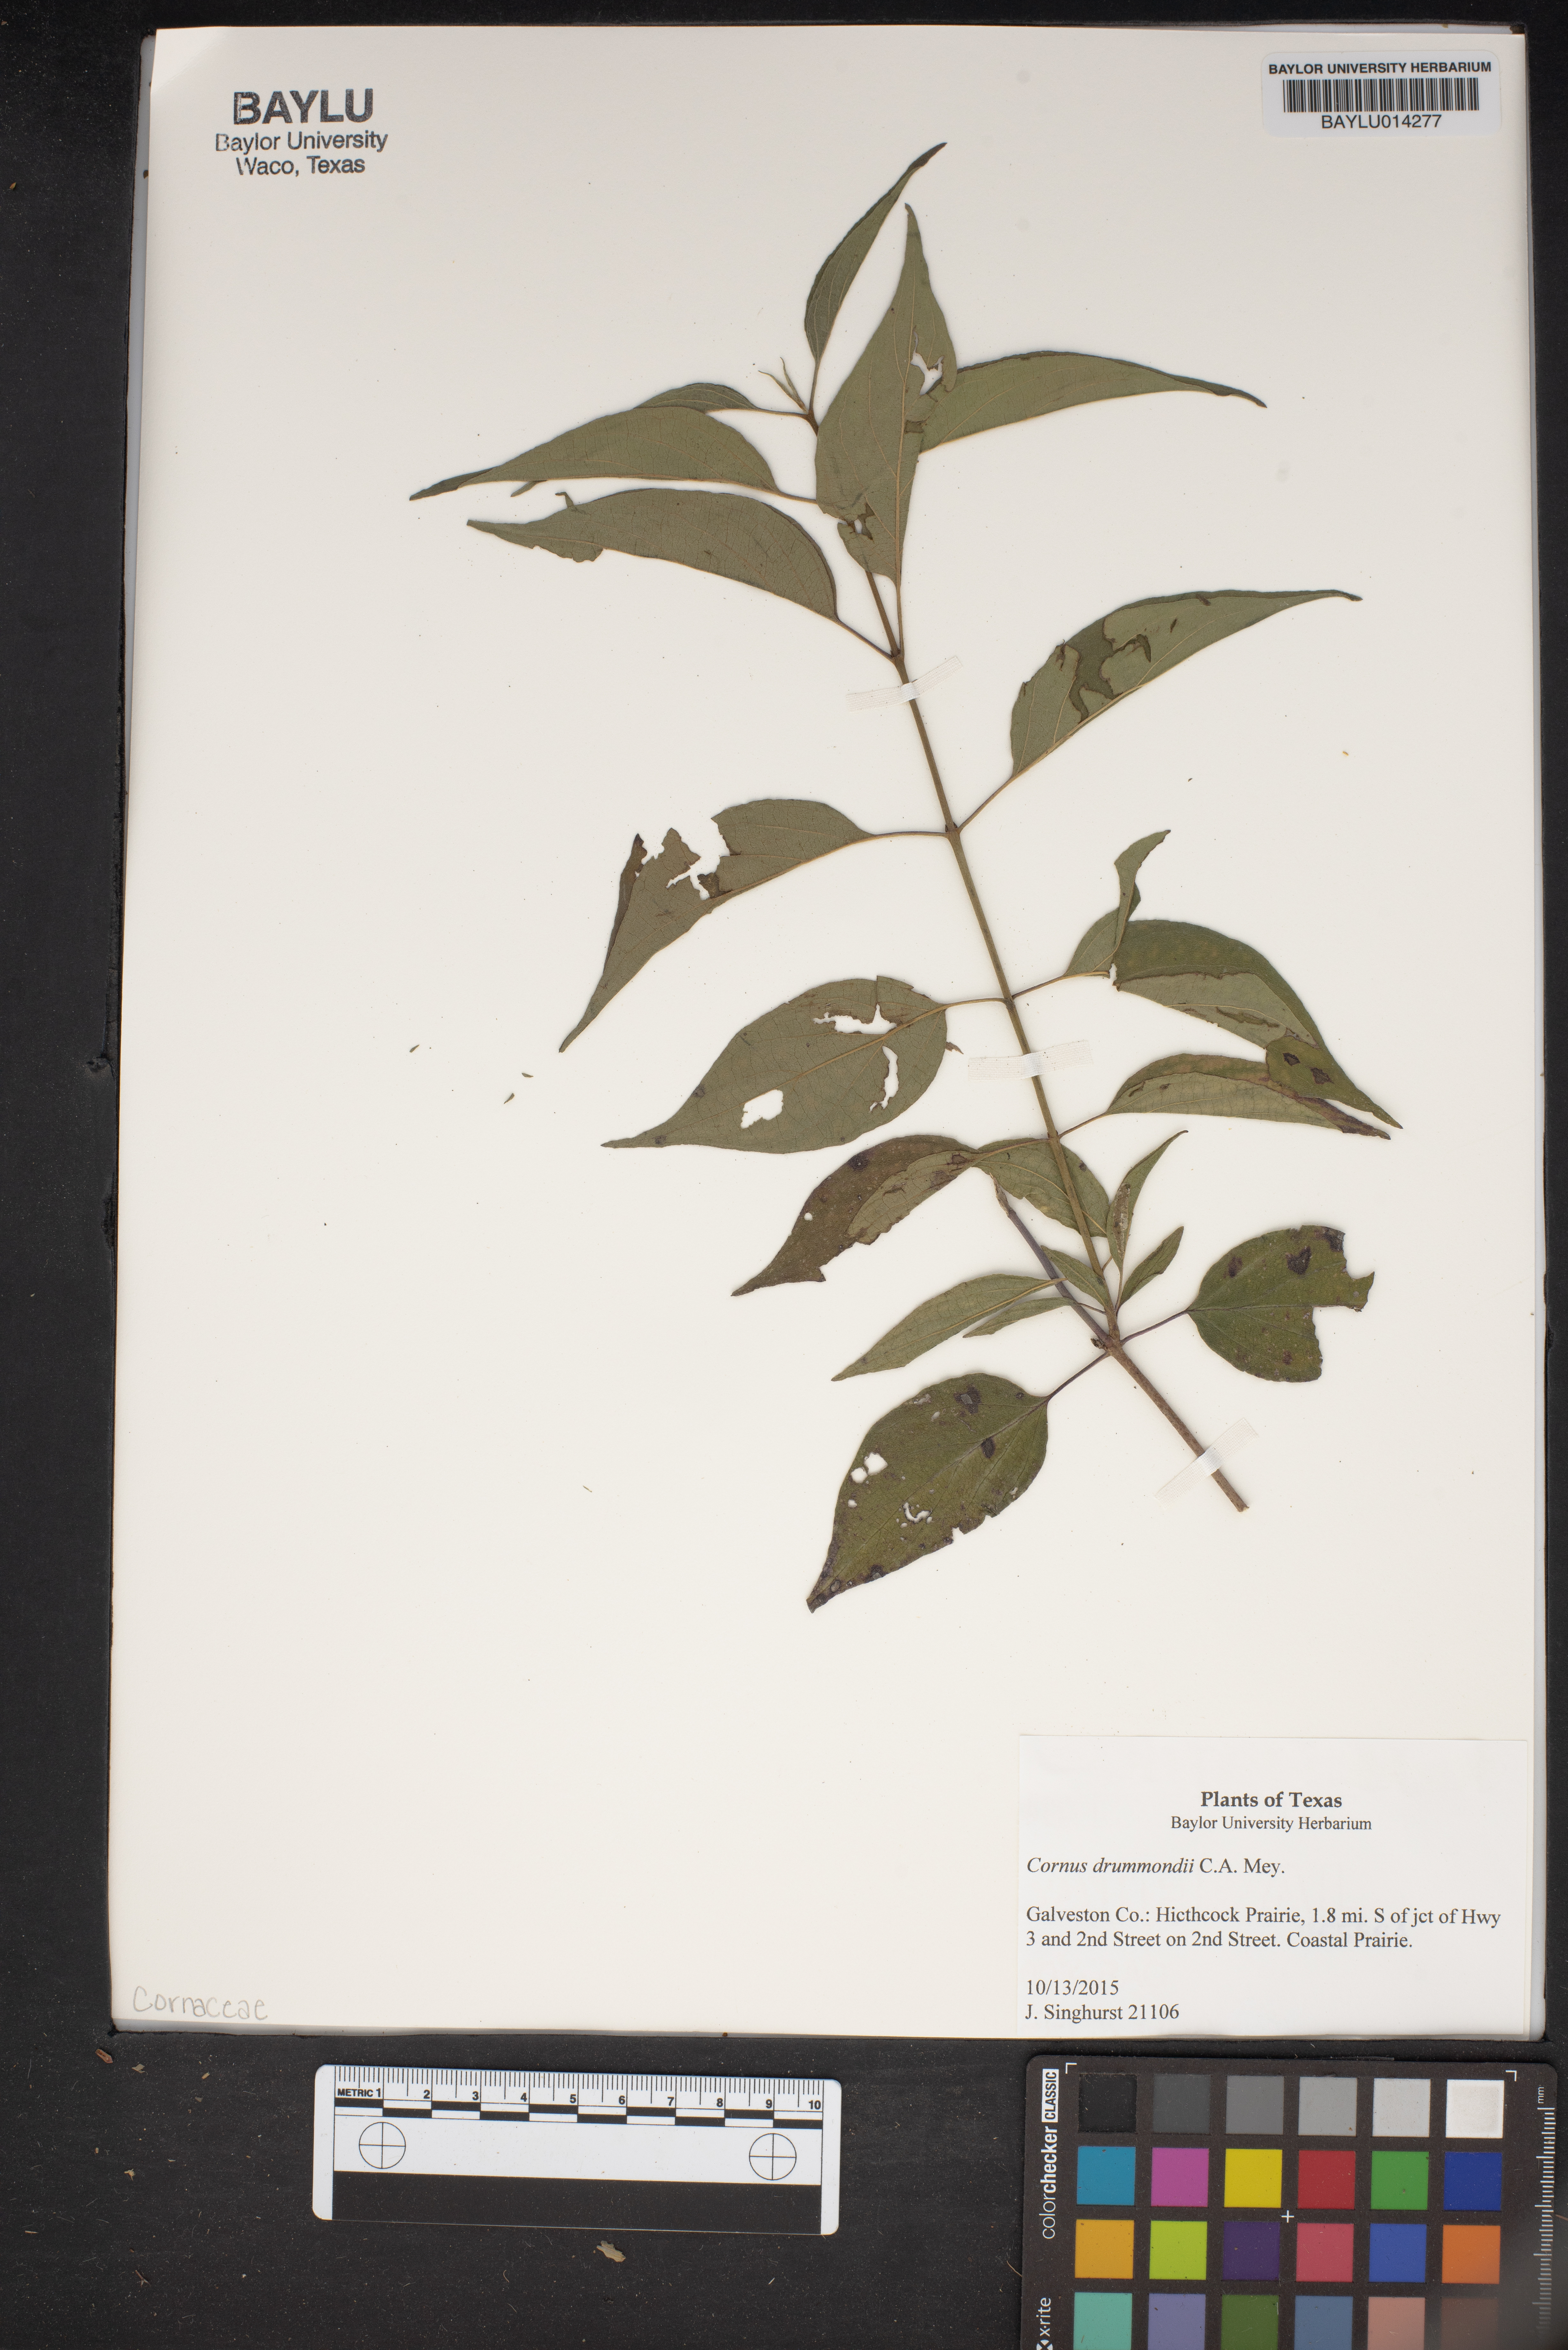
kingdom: Plantae
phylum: Tracheophyta
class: Magnoliopsida
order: Cornales
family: Cornaceae
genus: Cornus
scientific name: Cornus drummondii
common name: Rough-leaf dogwood
